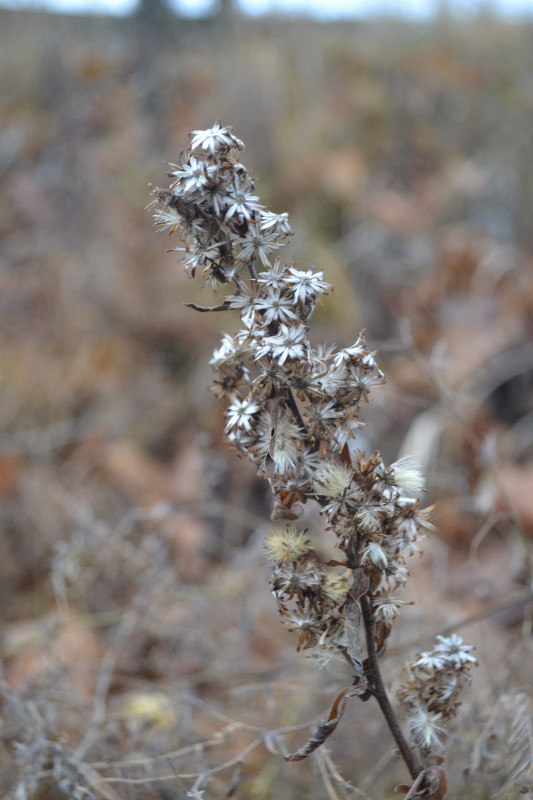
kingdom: Plantae
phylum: Tracheophyta
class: Magnoliopsida
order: Asterales
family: Asteraceae
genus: Omalotheca
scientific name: Omalotheca sylvatica
